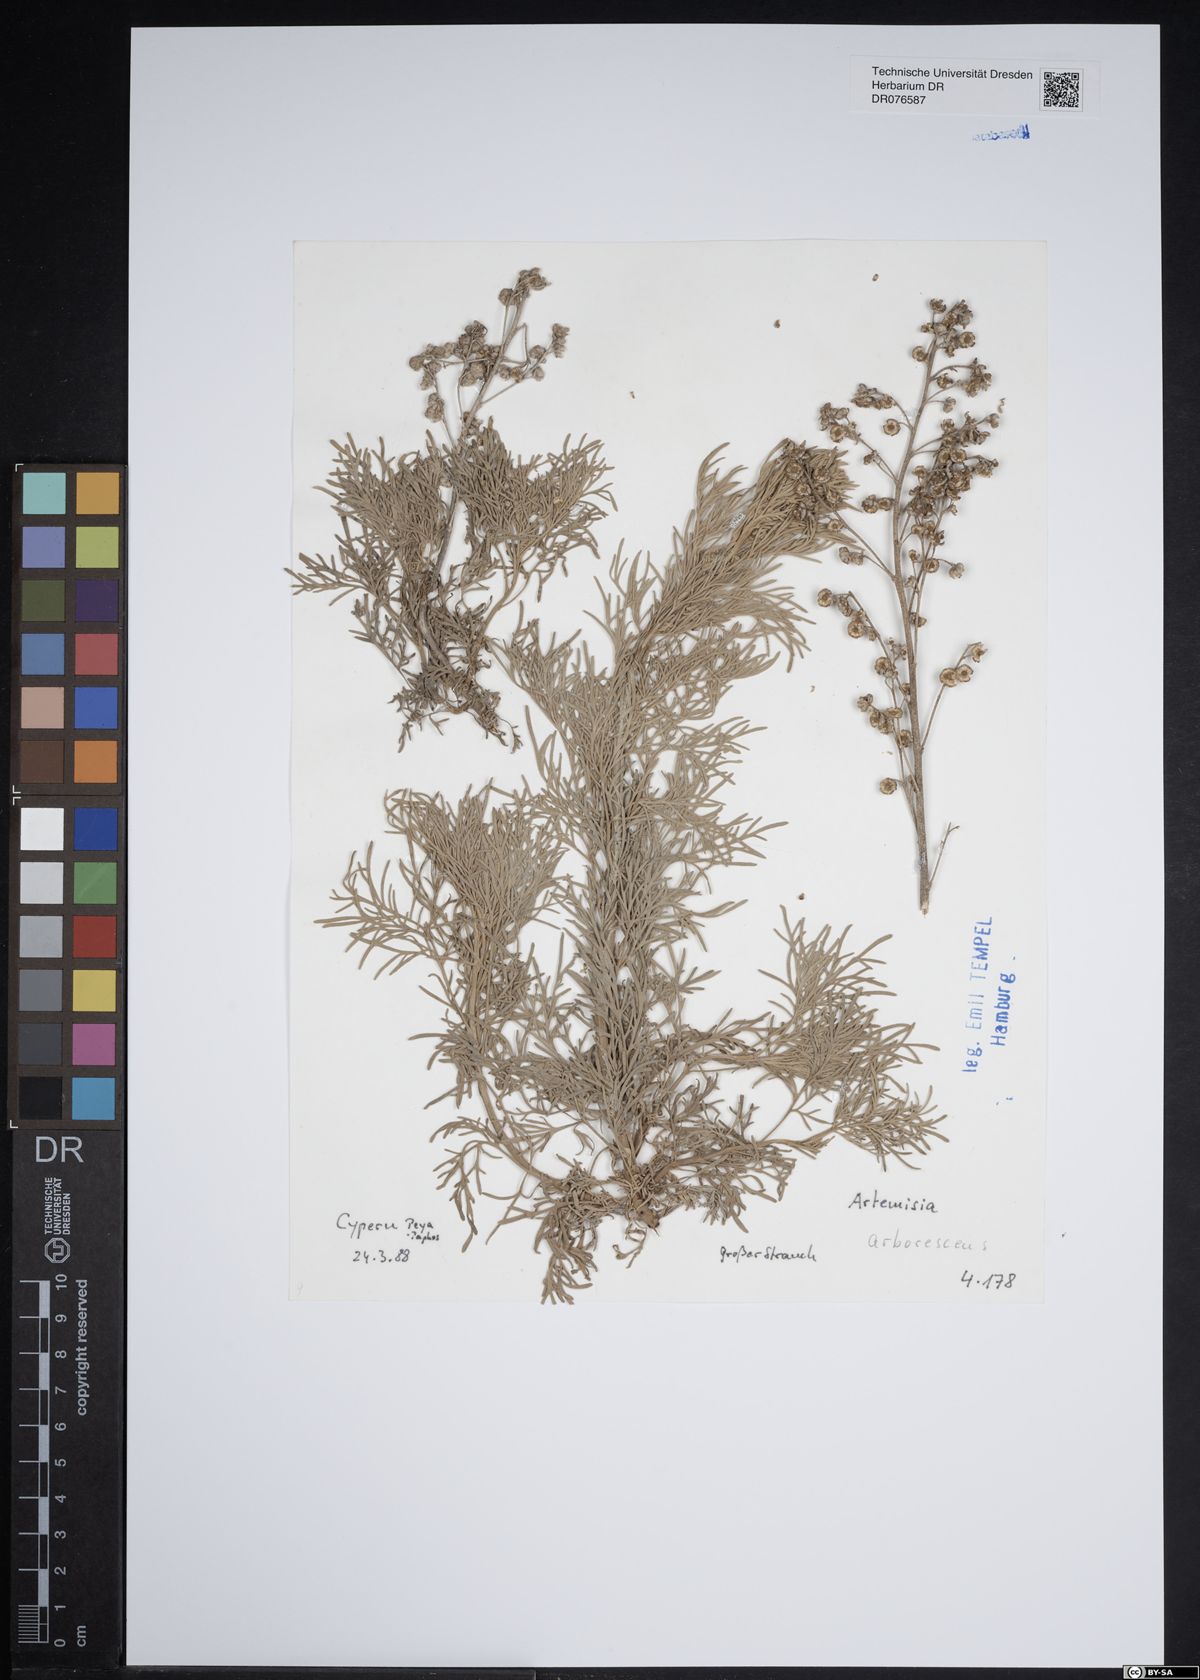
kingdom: Plantae
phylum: Tracheophyta
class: Magnoliopsida
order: Asterales
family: Asteraceae
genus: Artemisia
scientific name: Artemisia arborescens
